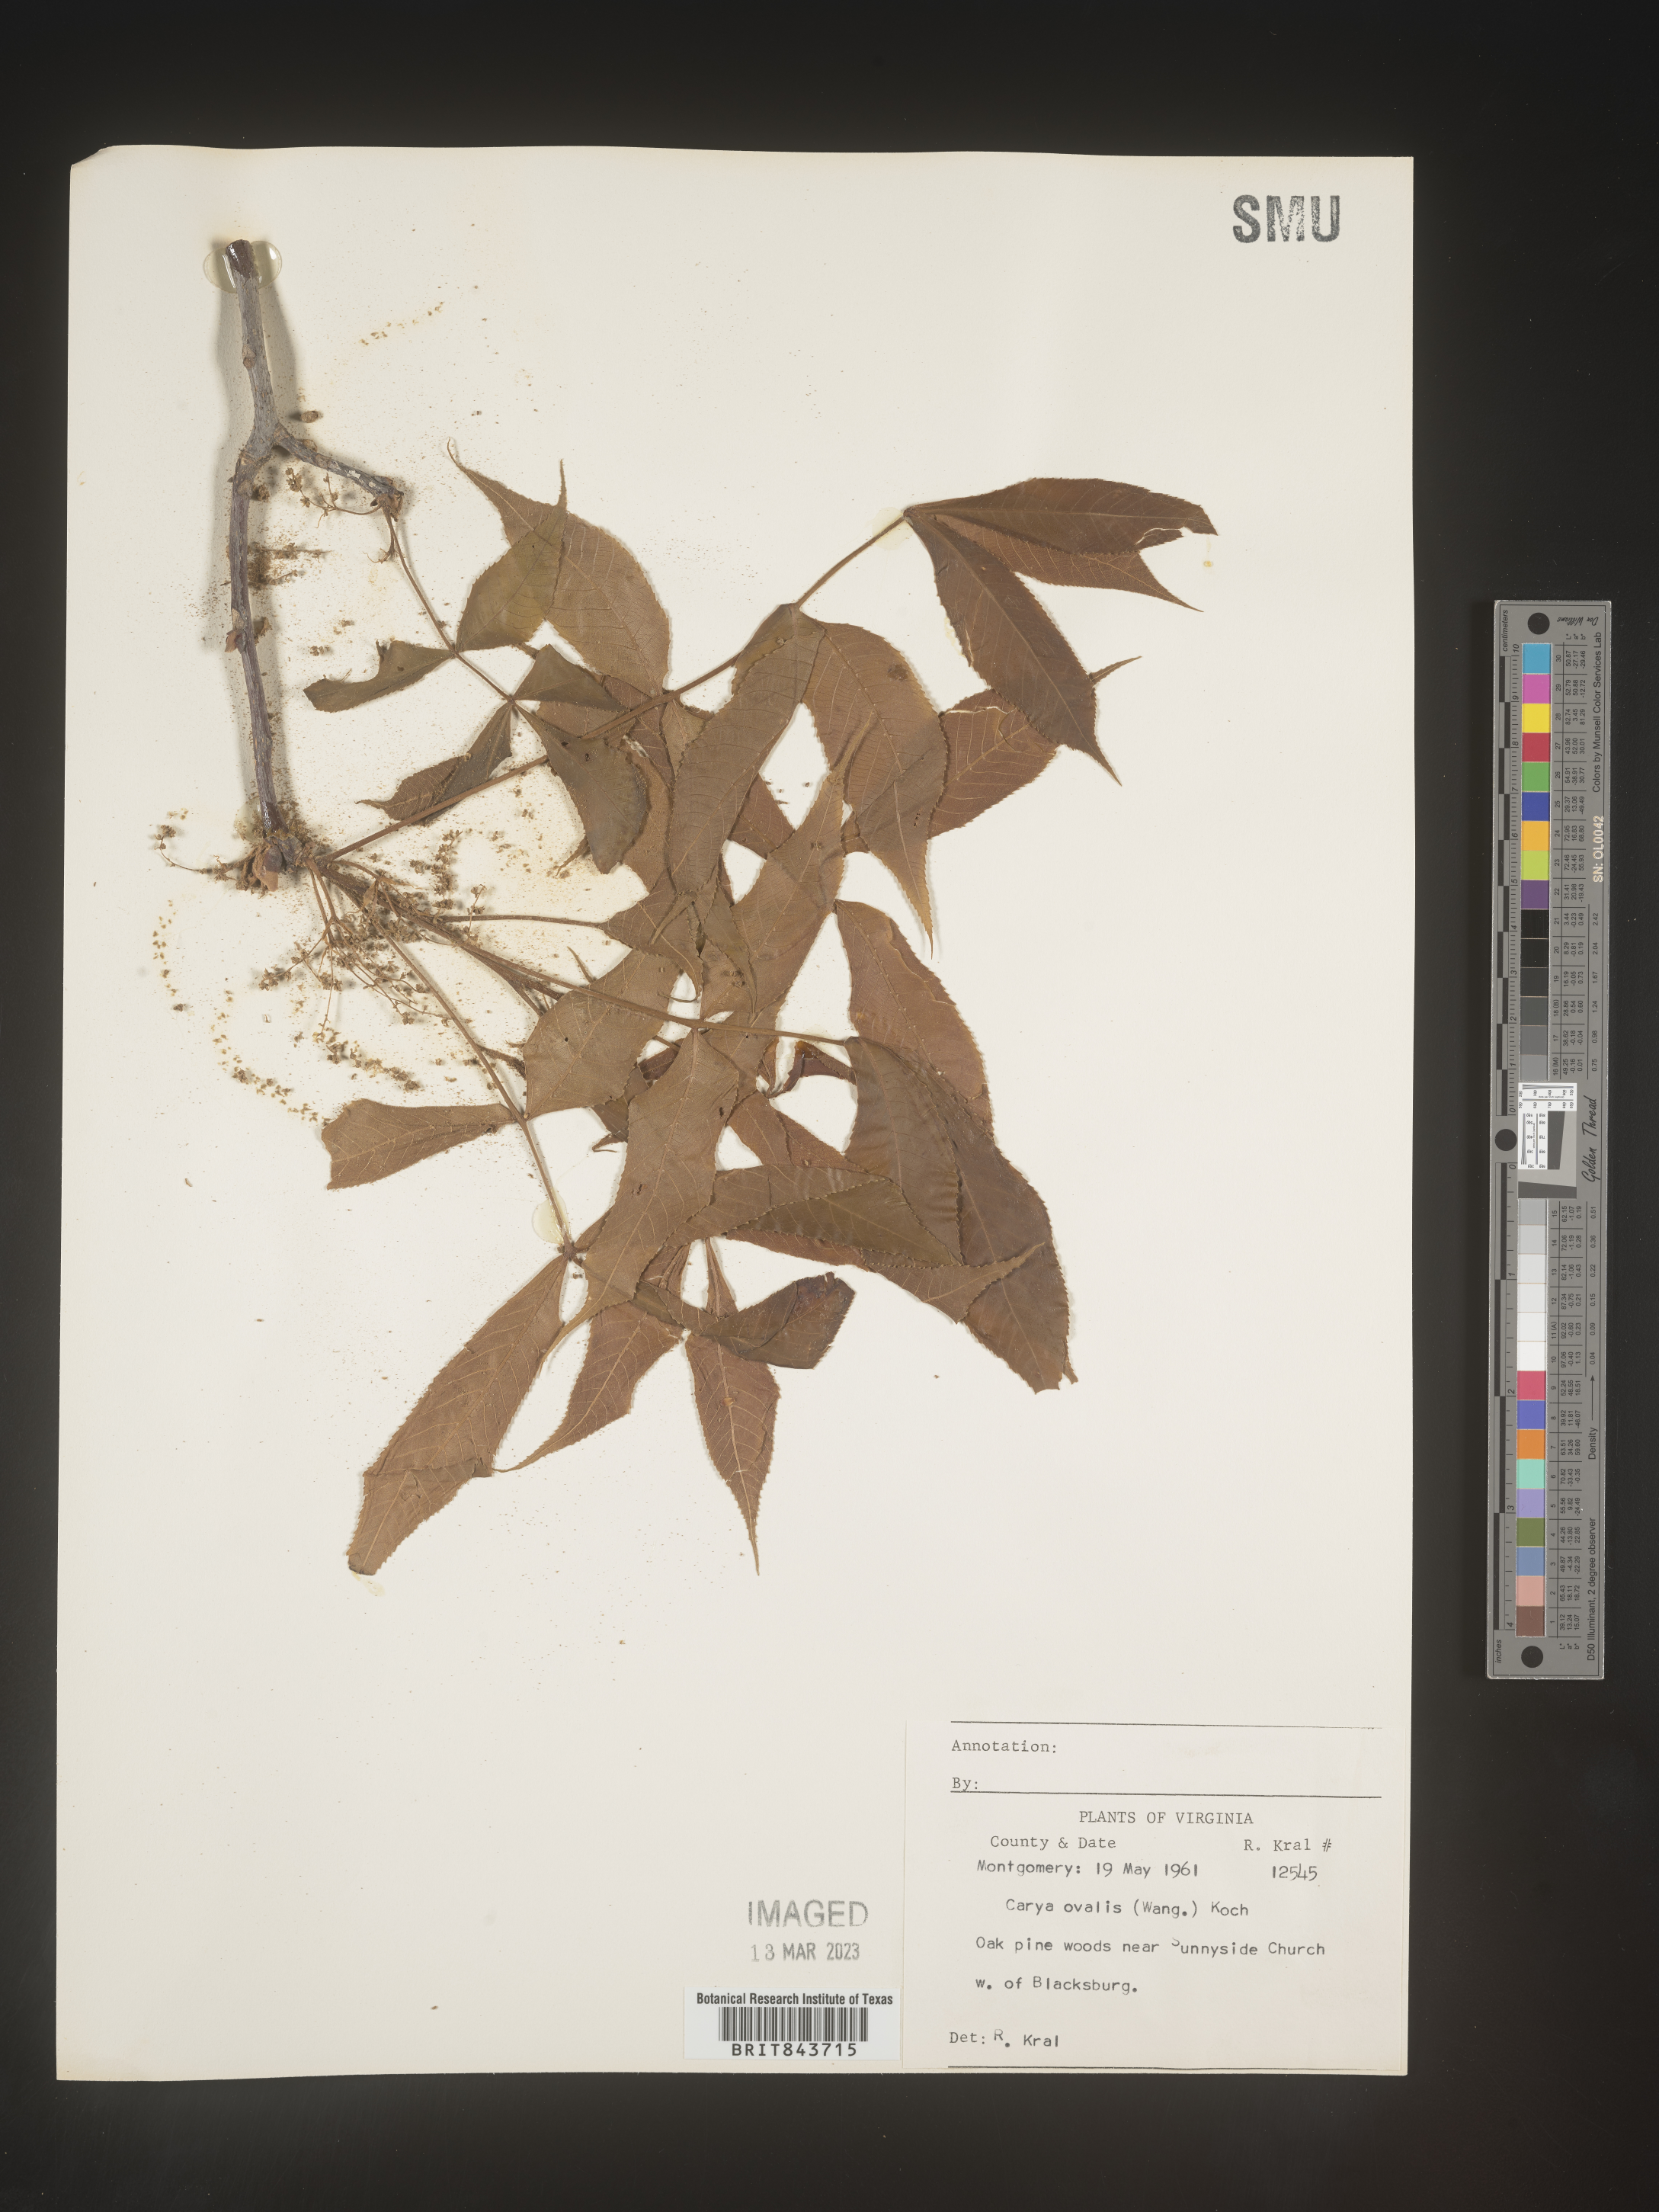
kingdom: Plantae
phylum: Tracheophyta
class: Magnoliopsida
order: Fagales
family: Juglandaceae
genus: Carya
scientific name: Carya ovalis
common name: False shagbark
